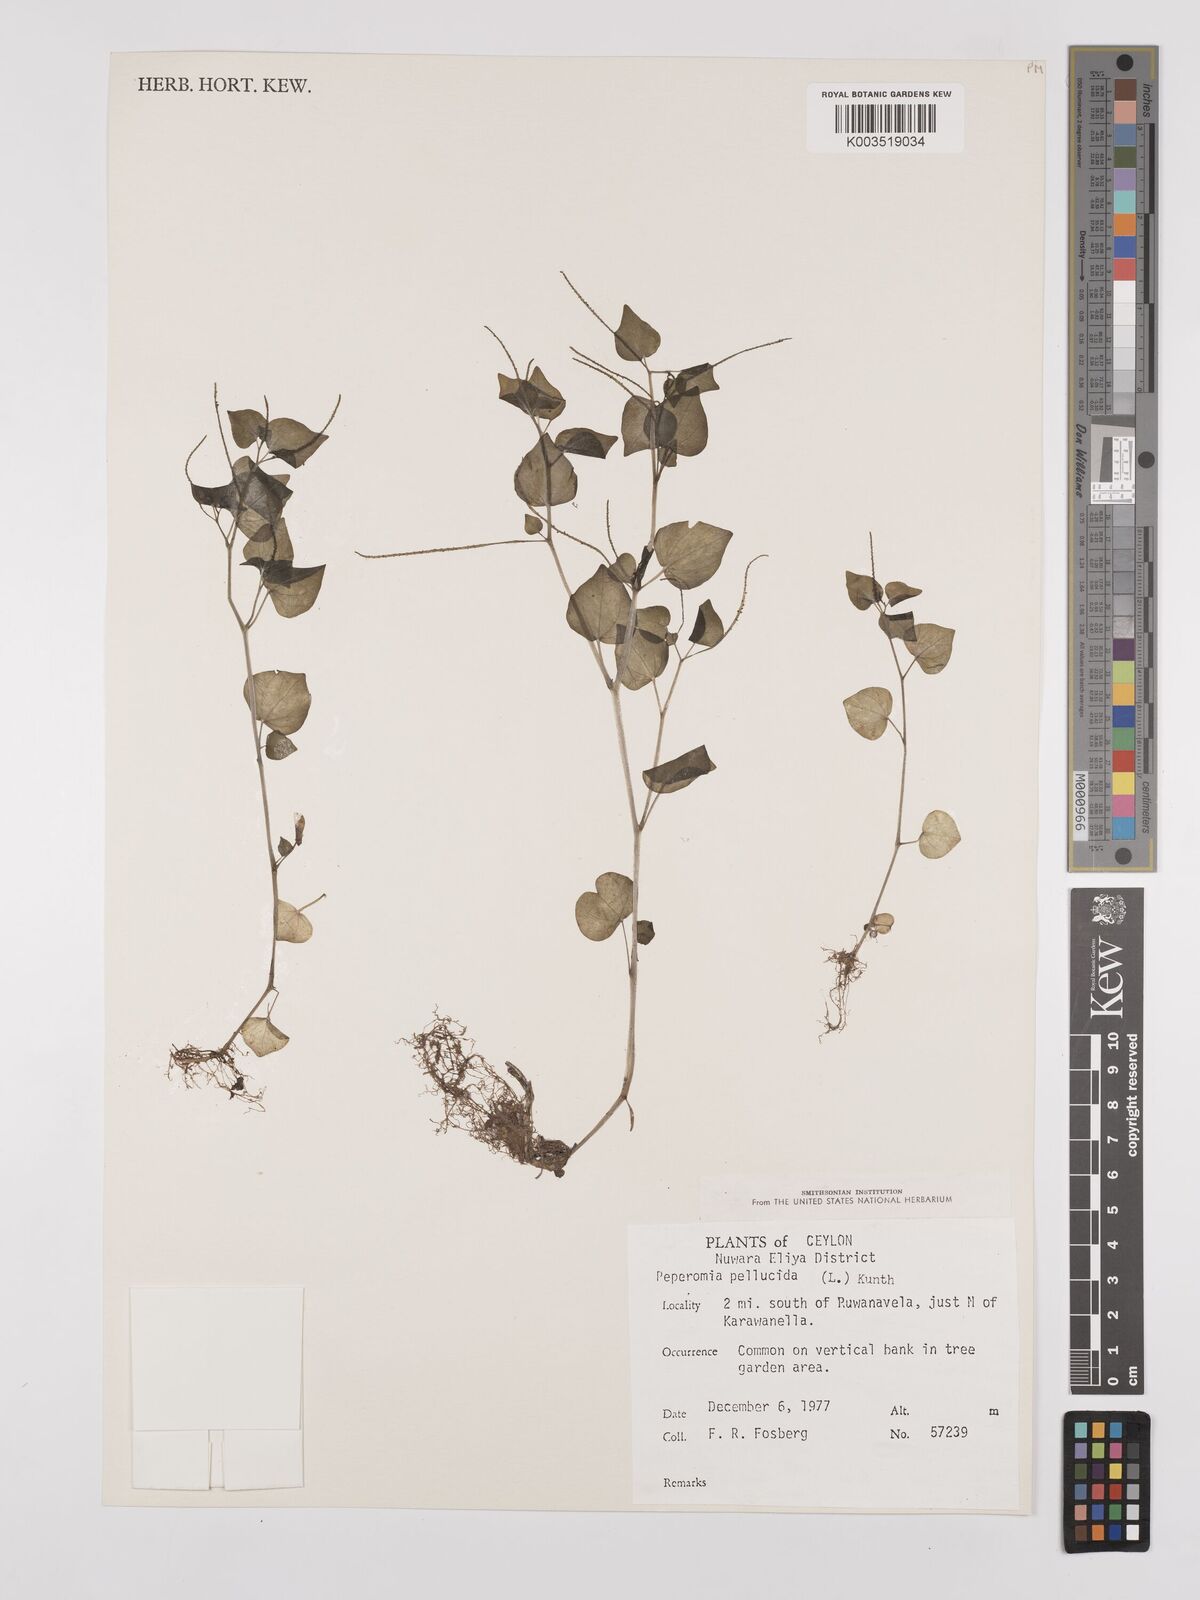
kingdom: Plantae
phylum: Tracheophyta
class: Magnoliopsida
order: Piperales
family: Piperaceae
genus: Peperomia
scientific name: Peperomia pellucida
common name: Man to man
